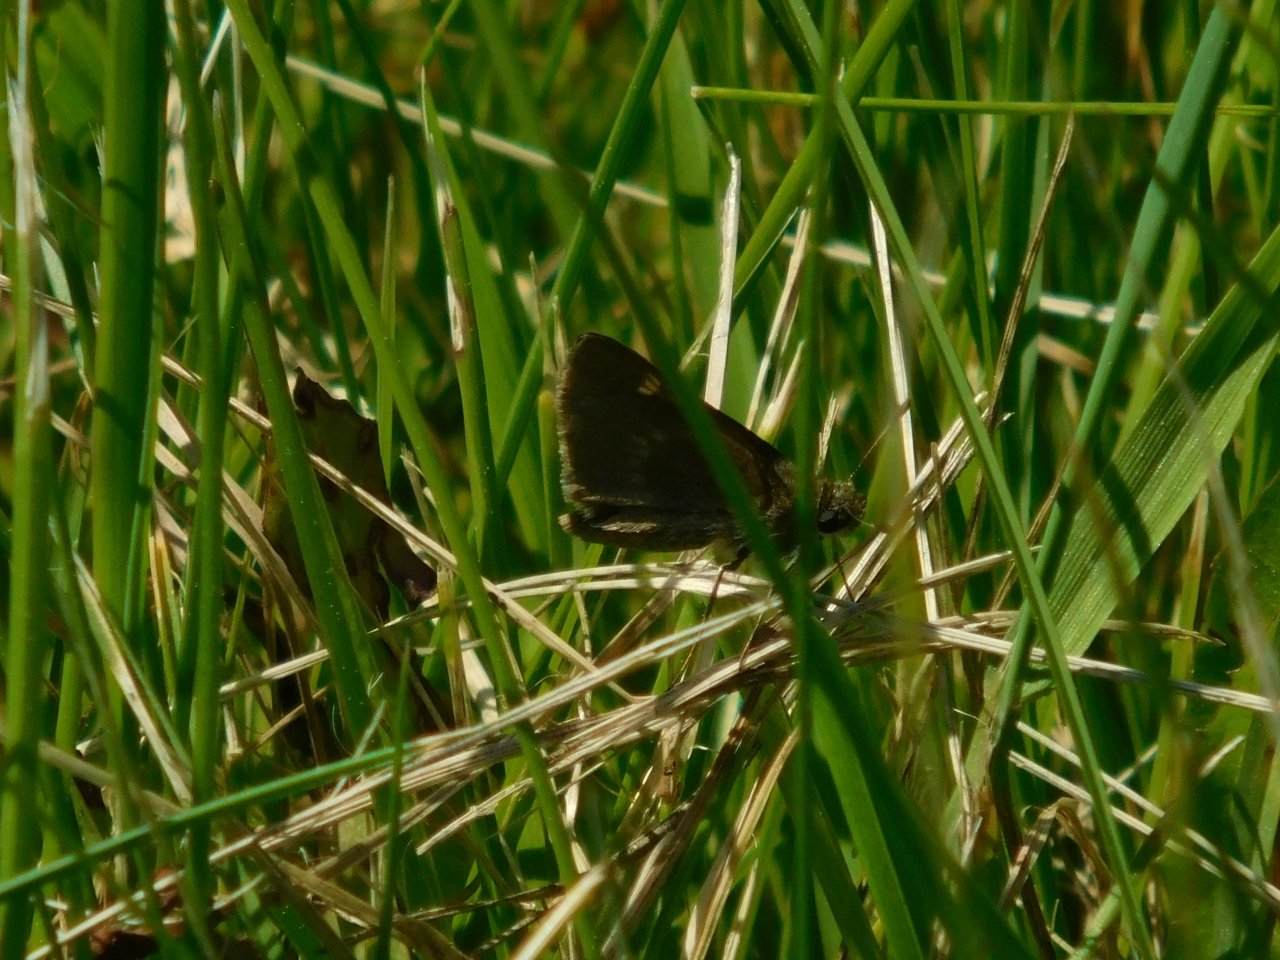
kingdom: Animalia
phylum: Arthropoda
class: Insecta
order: Lepidoptera
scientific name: Lepidoptera
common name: Butterflies
